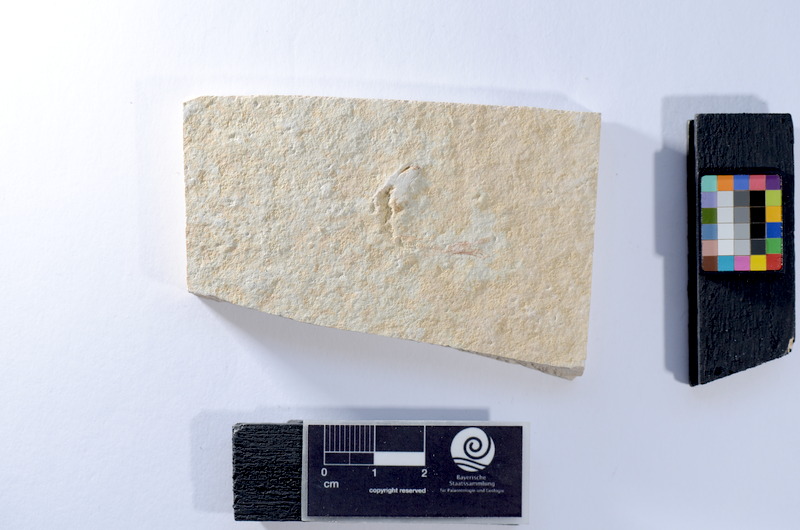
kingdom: Animalia
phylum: Chordata
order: Salmoniformes
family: Orthogonikleithridae
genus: Leptolepides
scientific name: Leptolepides
